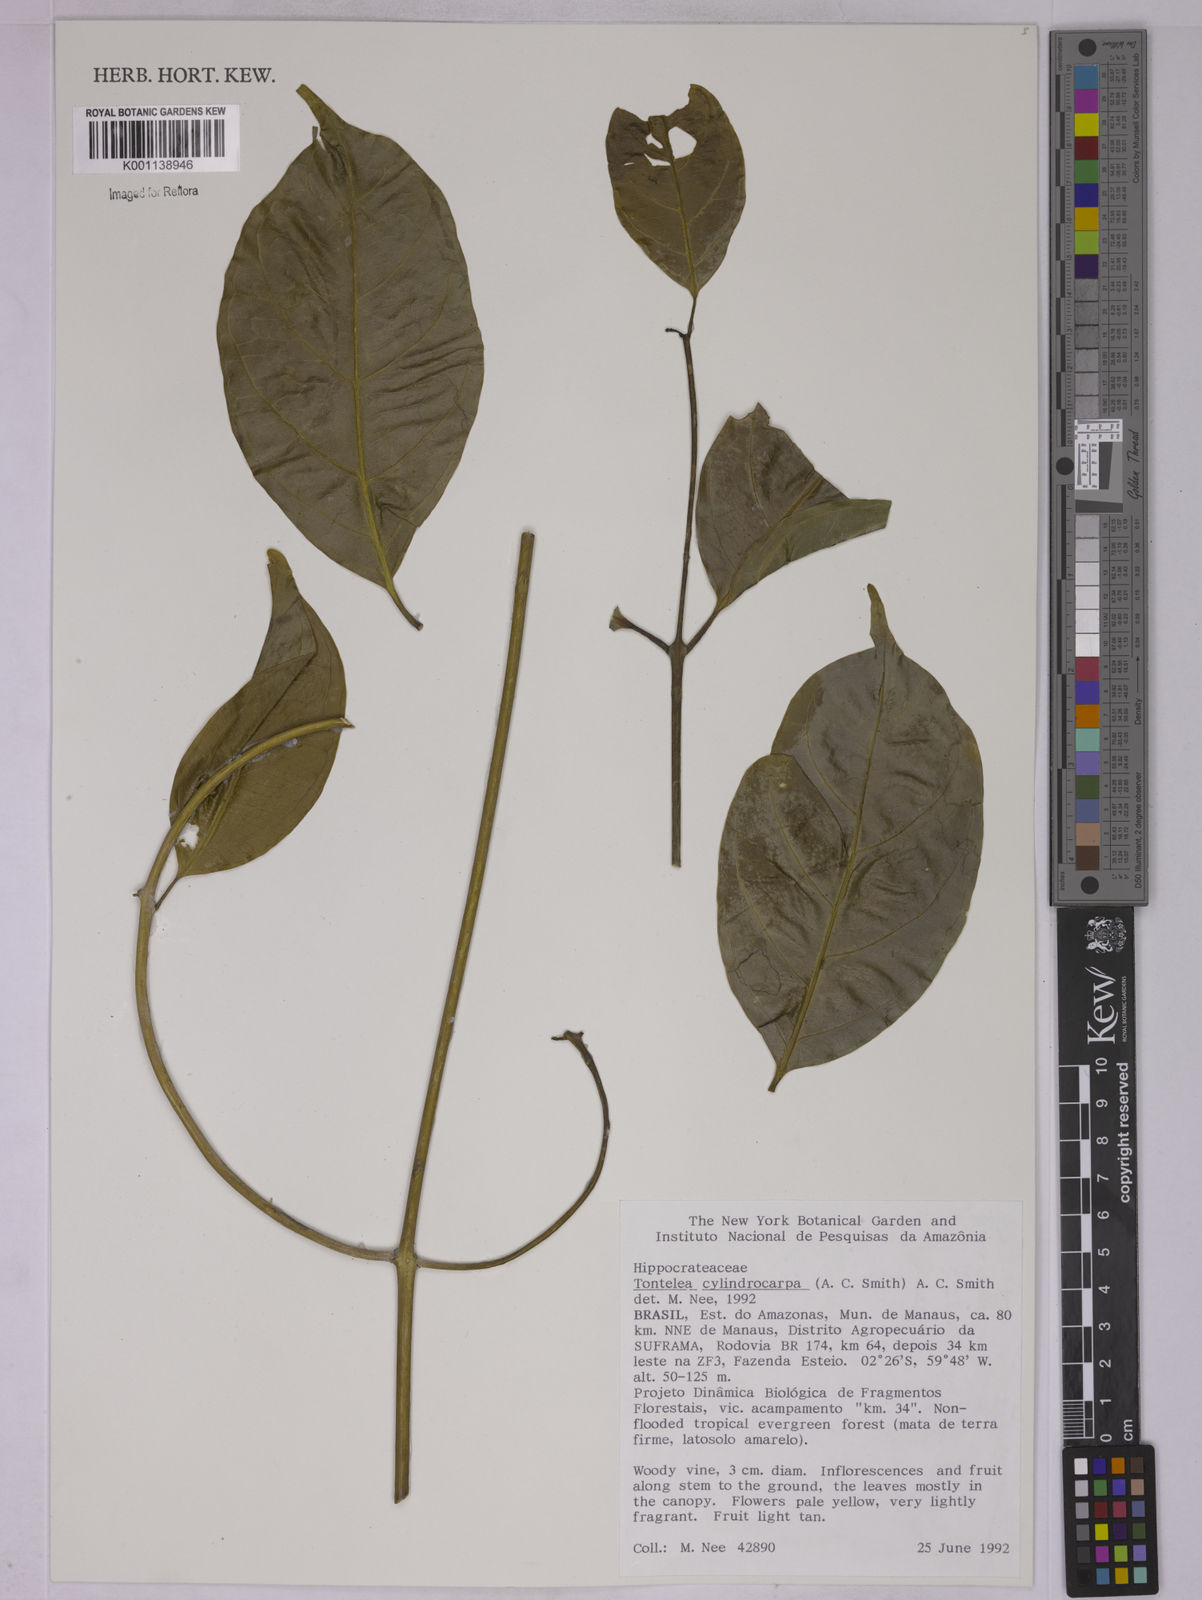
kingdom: Plantae
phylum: Tracheophyta
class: Magnoliopsida
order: Celastrales
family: Celastraceae
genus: Tontelea
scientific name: Tontelea cylindrocarpa
